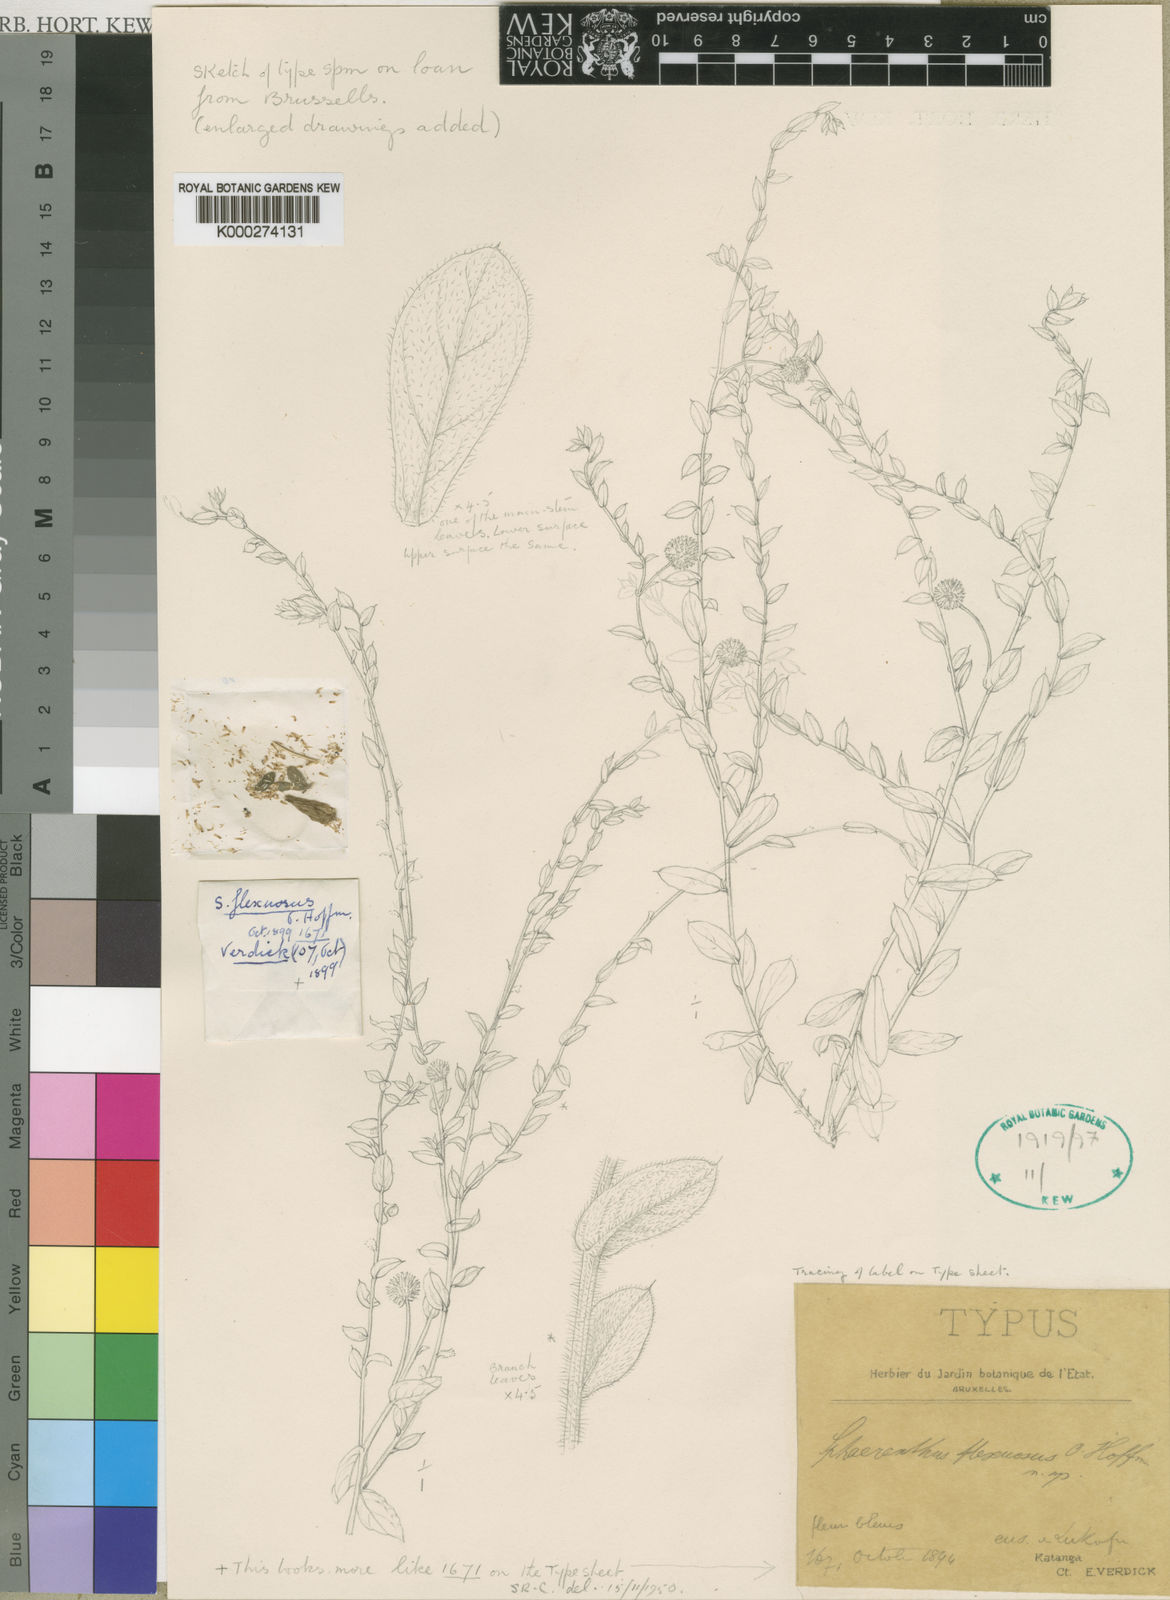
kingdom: Plantae
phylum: Tracheophyta
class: Magnoliopsida
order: Asterales
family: Asteraceae
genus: Sphaeranthus
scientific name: Sphaeranthus flexuosus
